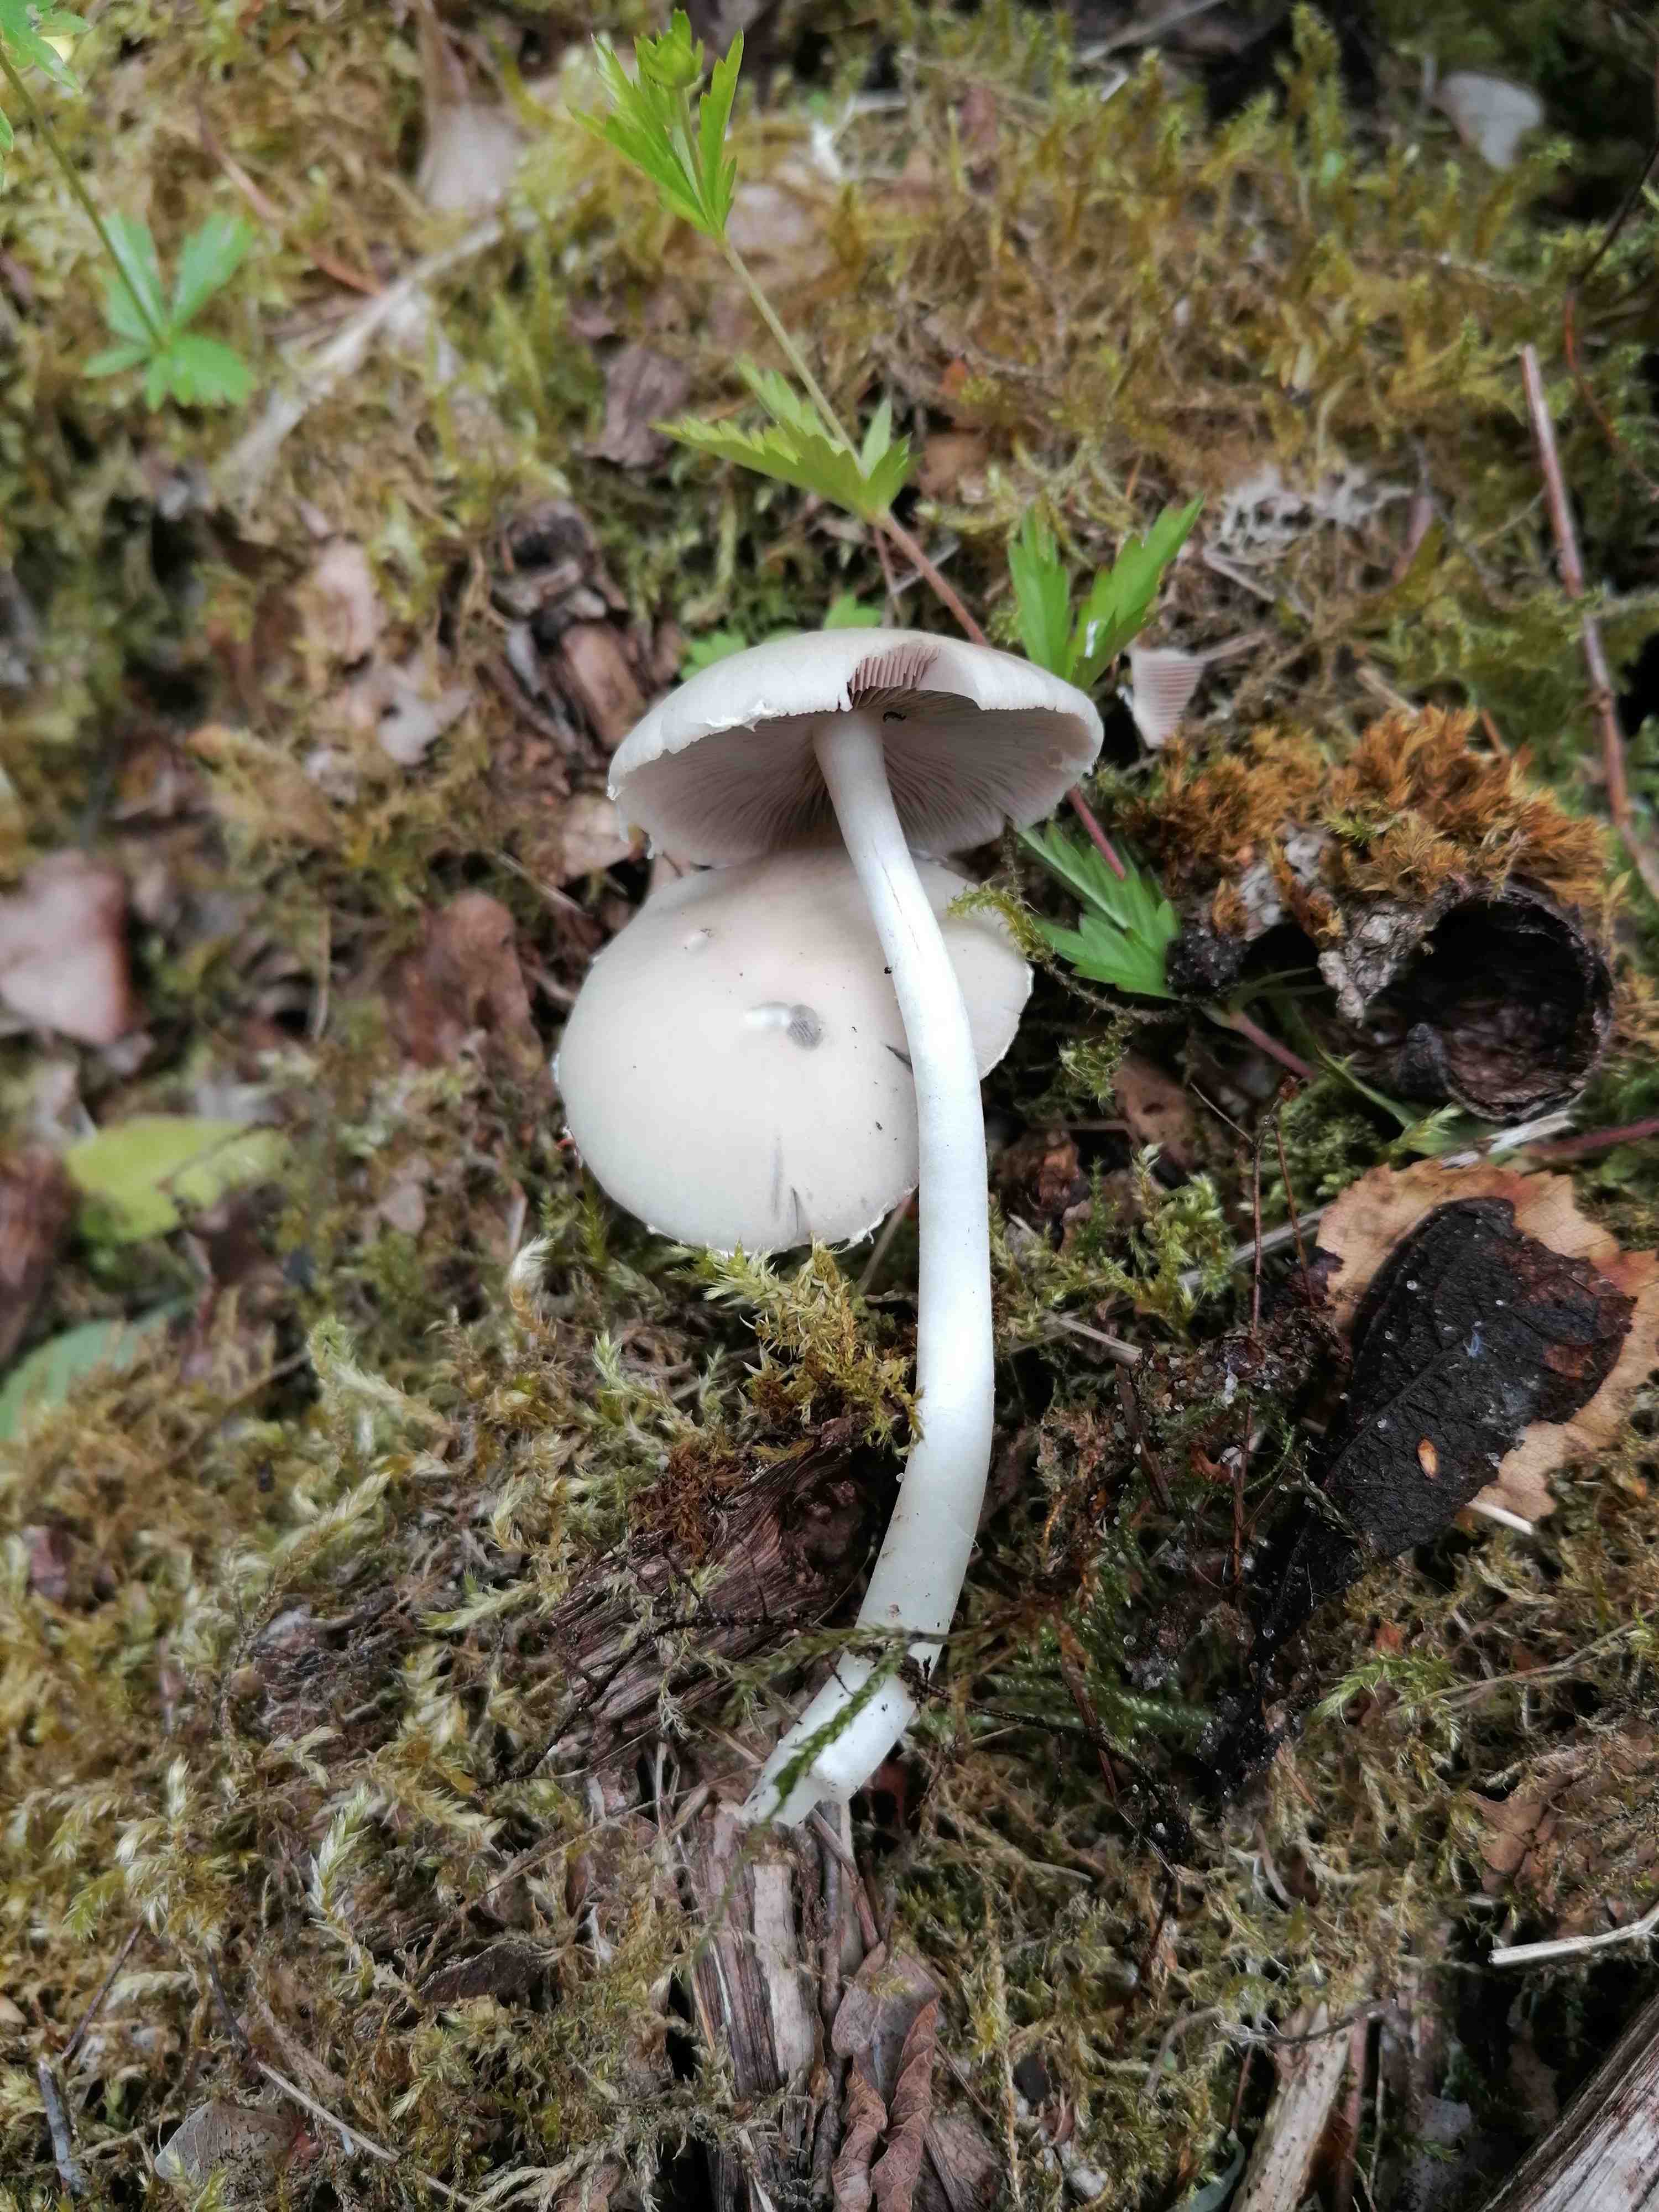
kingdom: Fungi
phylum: Basidiomycota
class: Agaricomycetes
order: Agaricales
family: Psathyrellaceae
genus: Candolleomyces
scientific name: Candolleomyces candolleanus
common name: Candolles mørkhat
